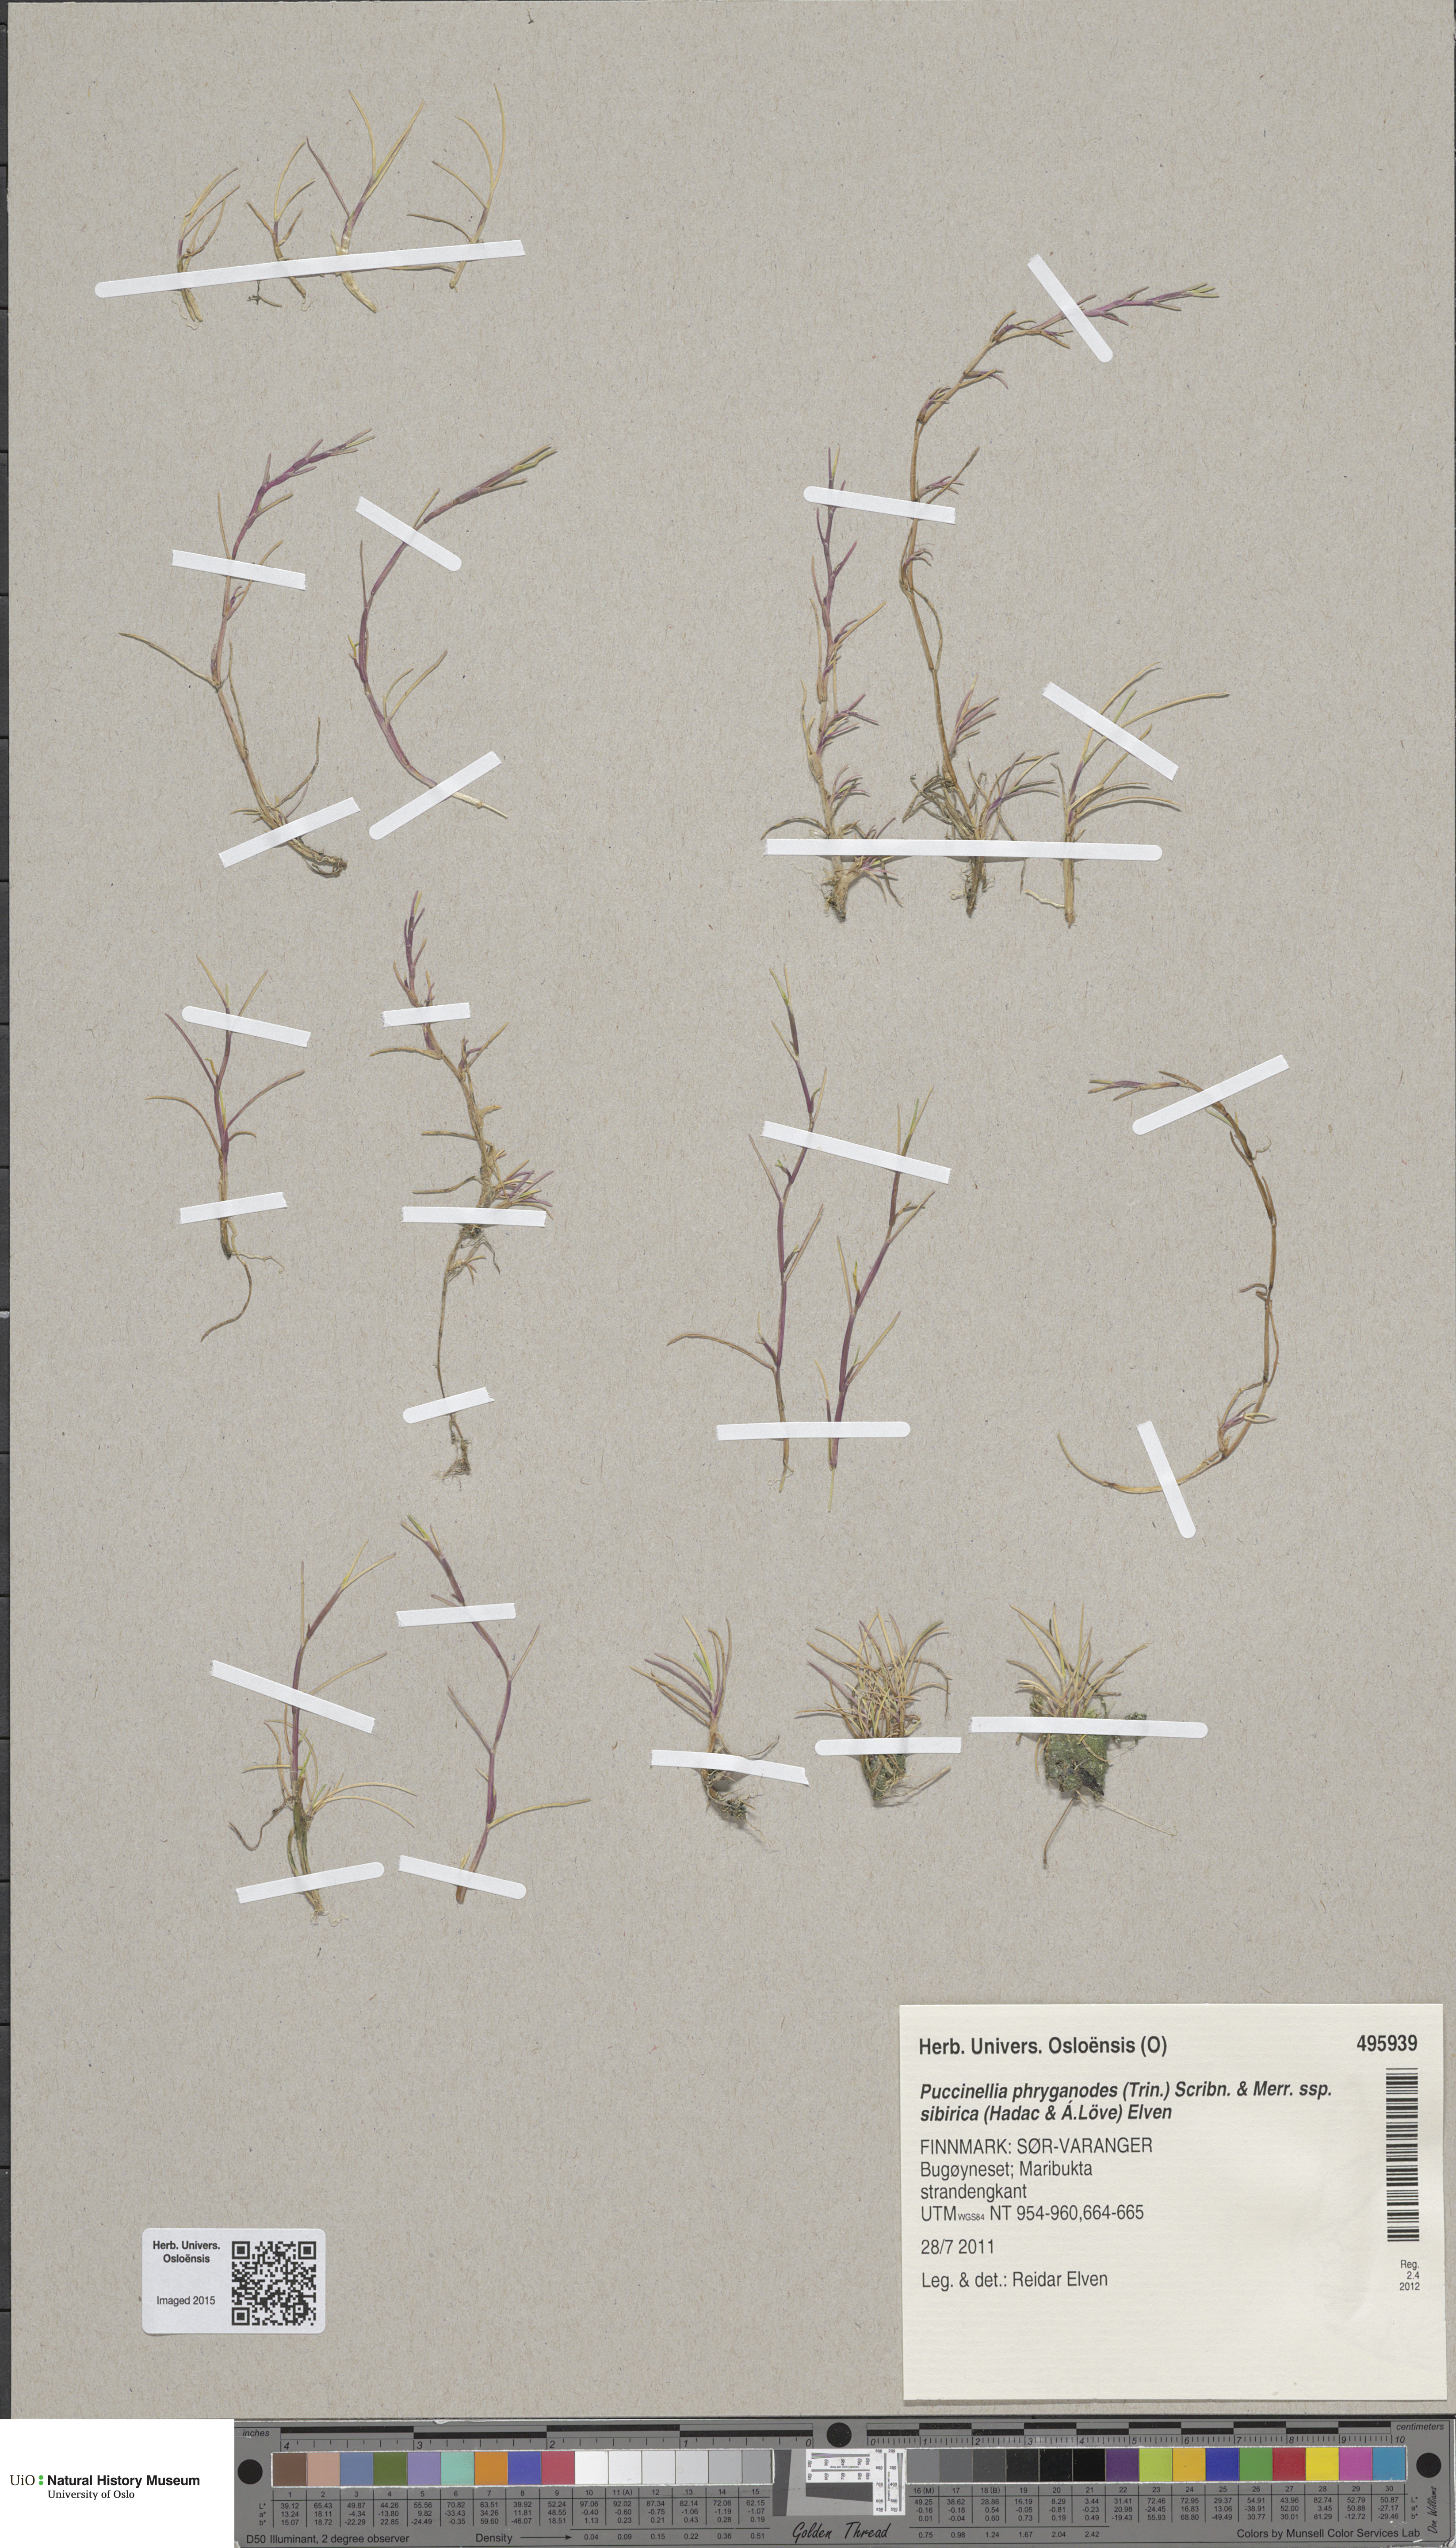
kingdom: Plantae
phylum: Tracheophyta
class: Liliopsida
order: Poales
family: Poaceae
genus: Puccinellia
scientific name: Puccinellia phryganodes
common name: Creeping alkaligrass
